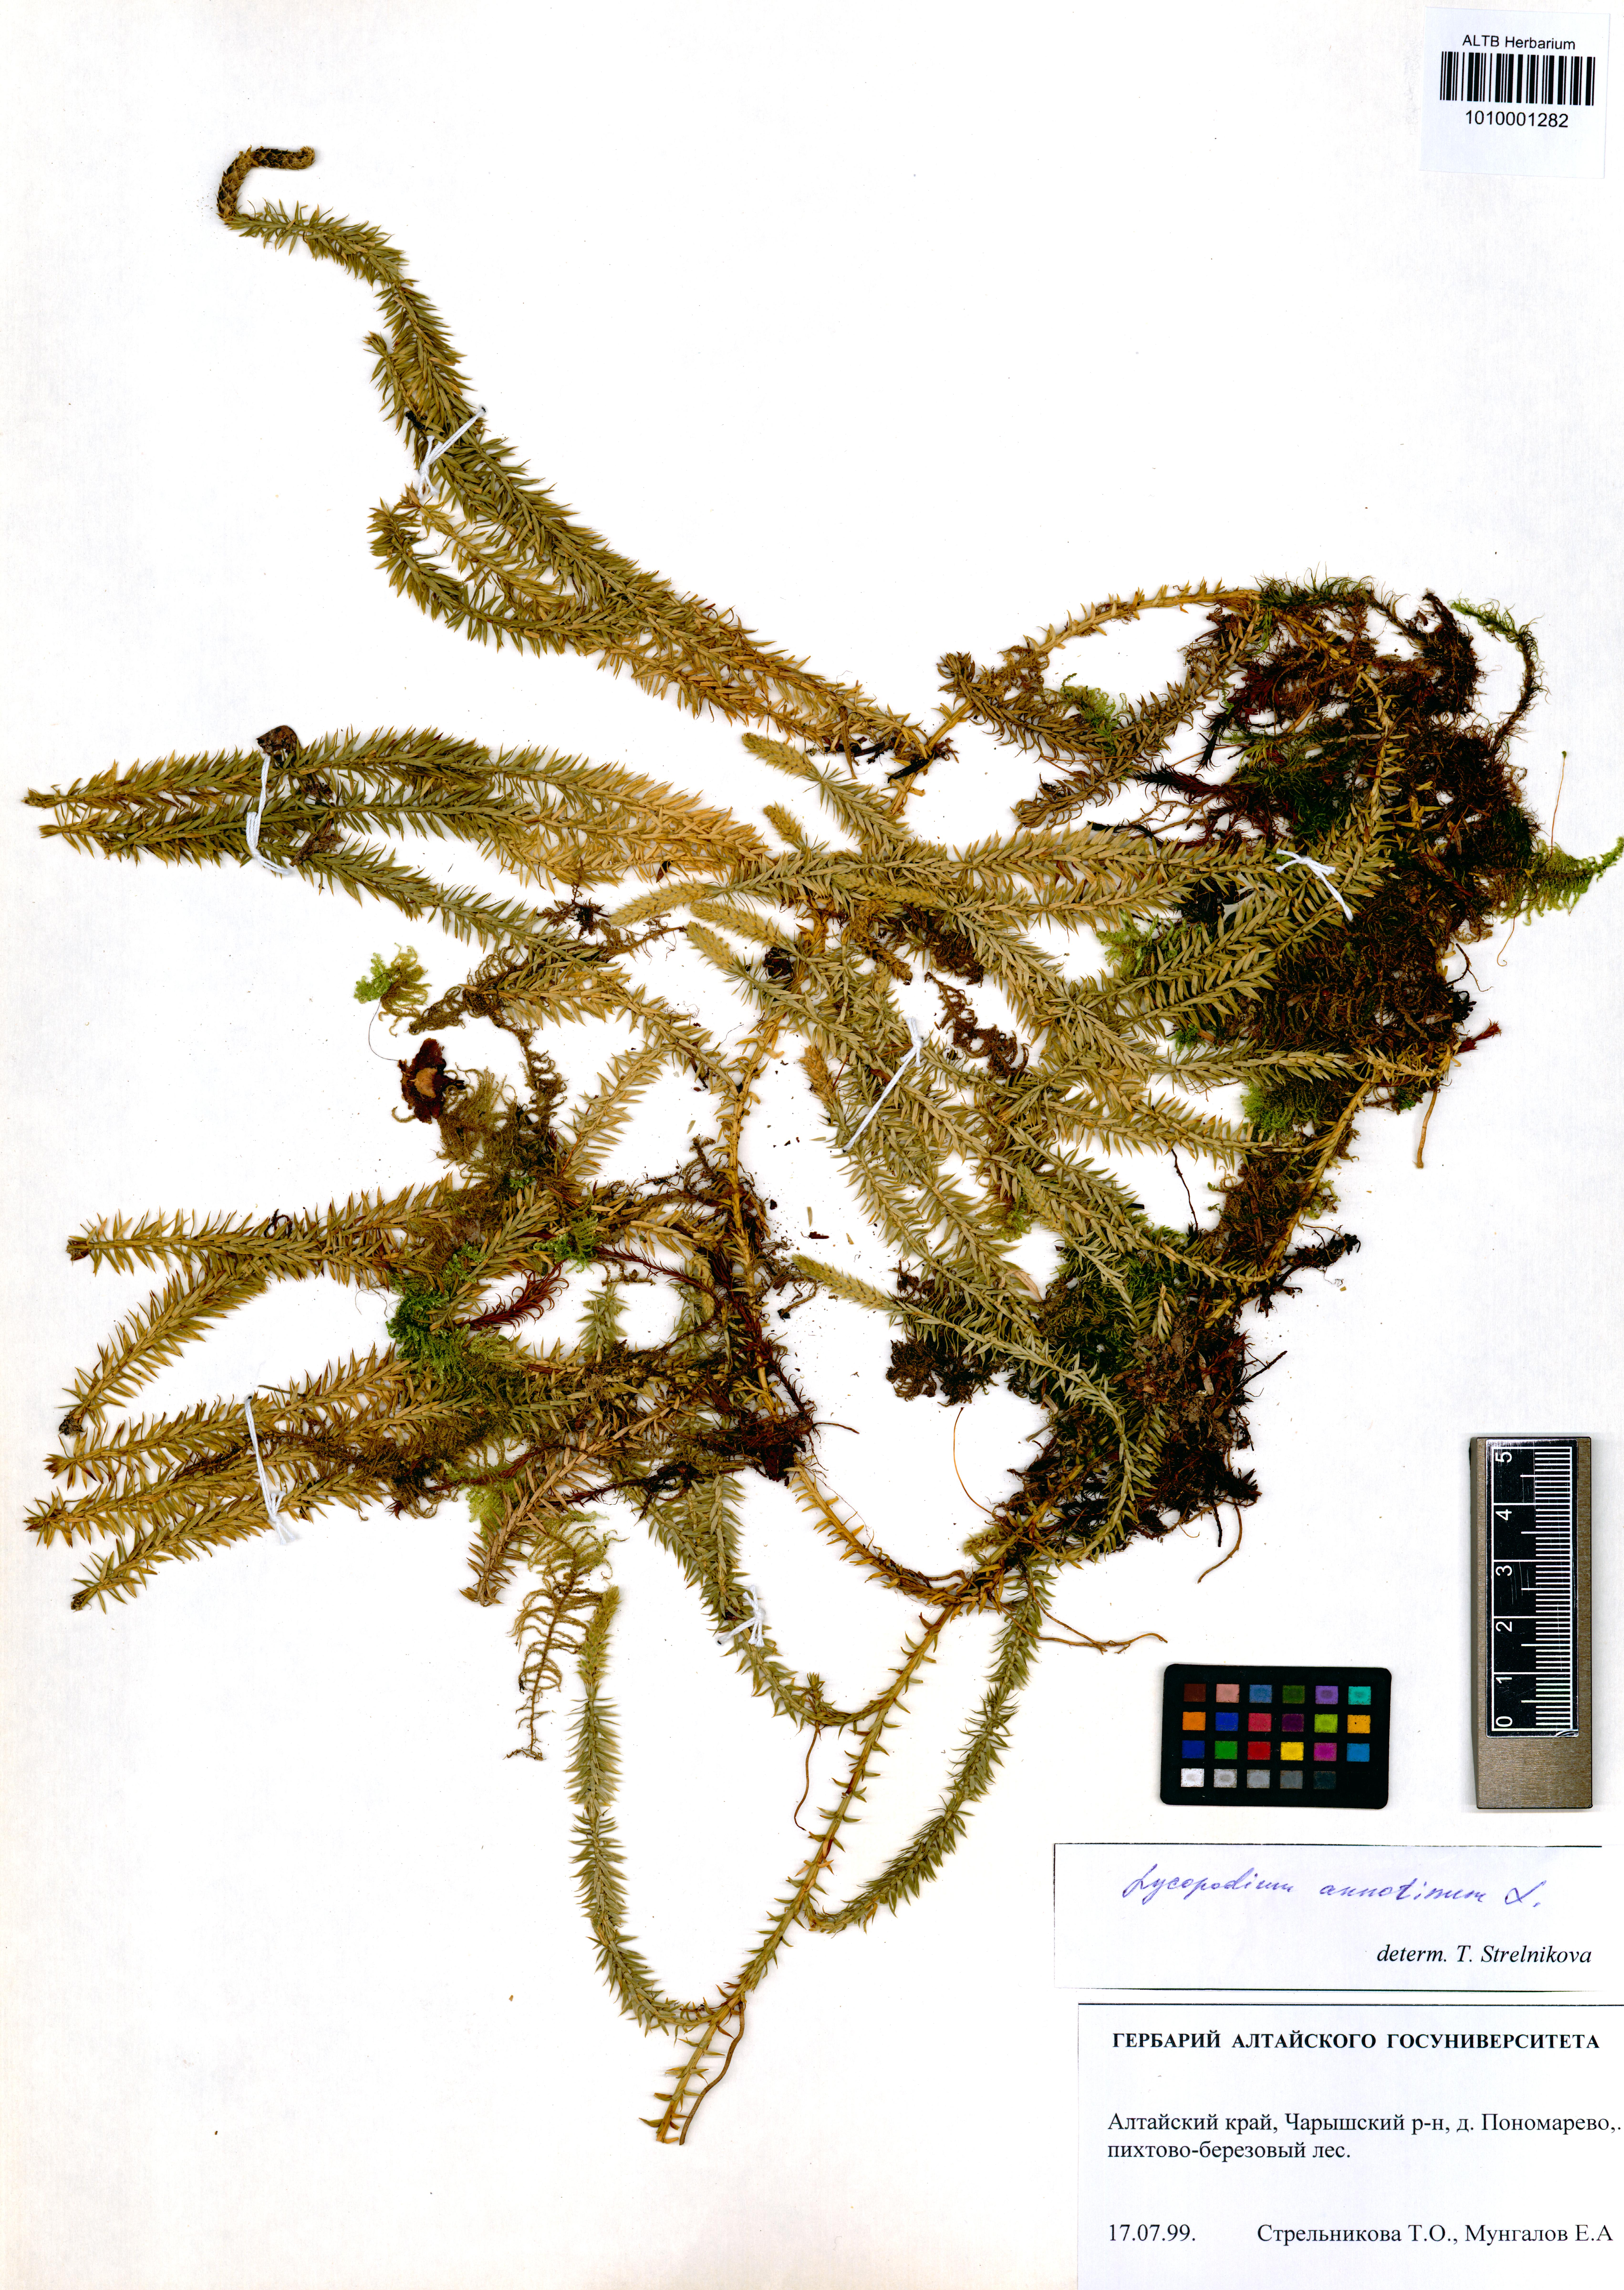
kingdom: Plantae
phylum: Tracheophyta
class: Lycopodiopsida
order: Lycopodiales
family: Lycopodiaceae
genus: Spinulum
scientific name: Spinulum annotinum
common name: Interrupted club-moss
